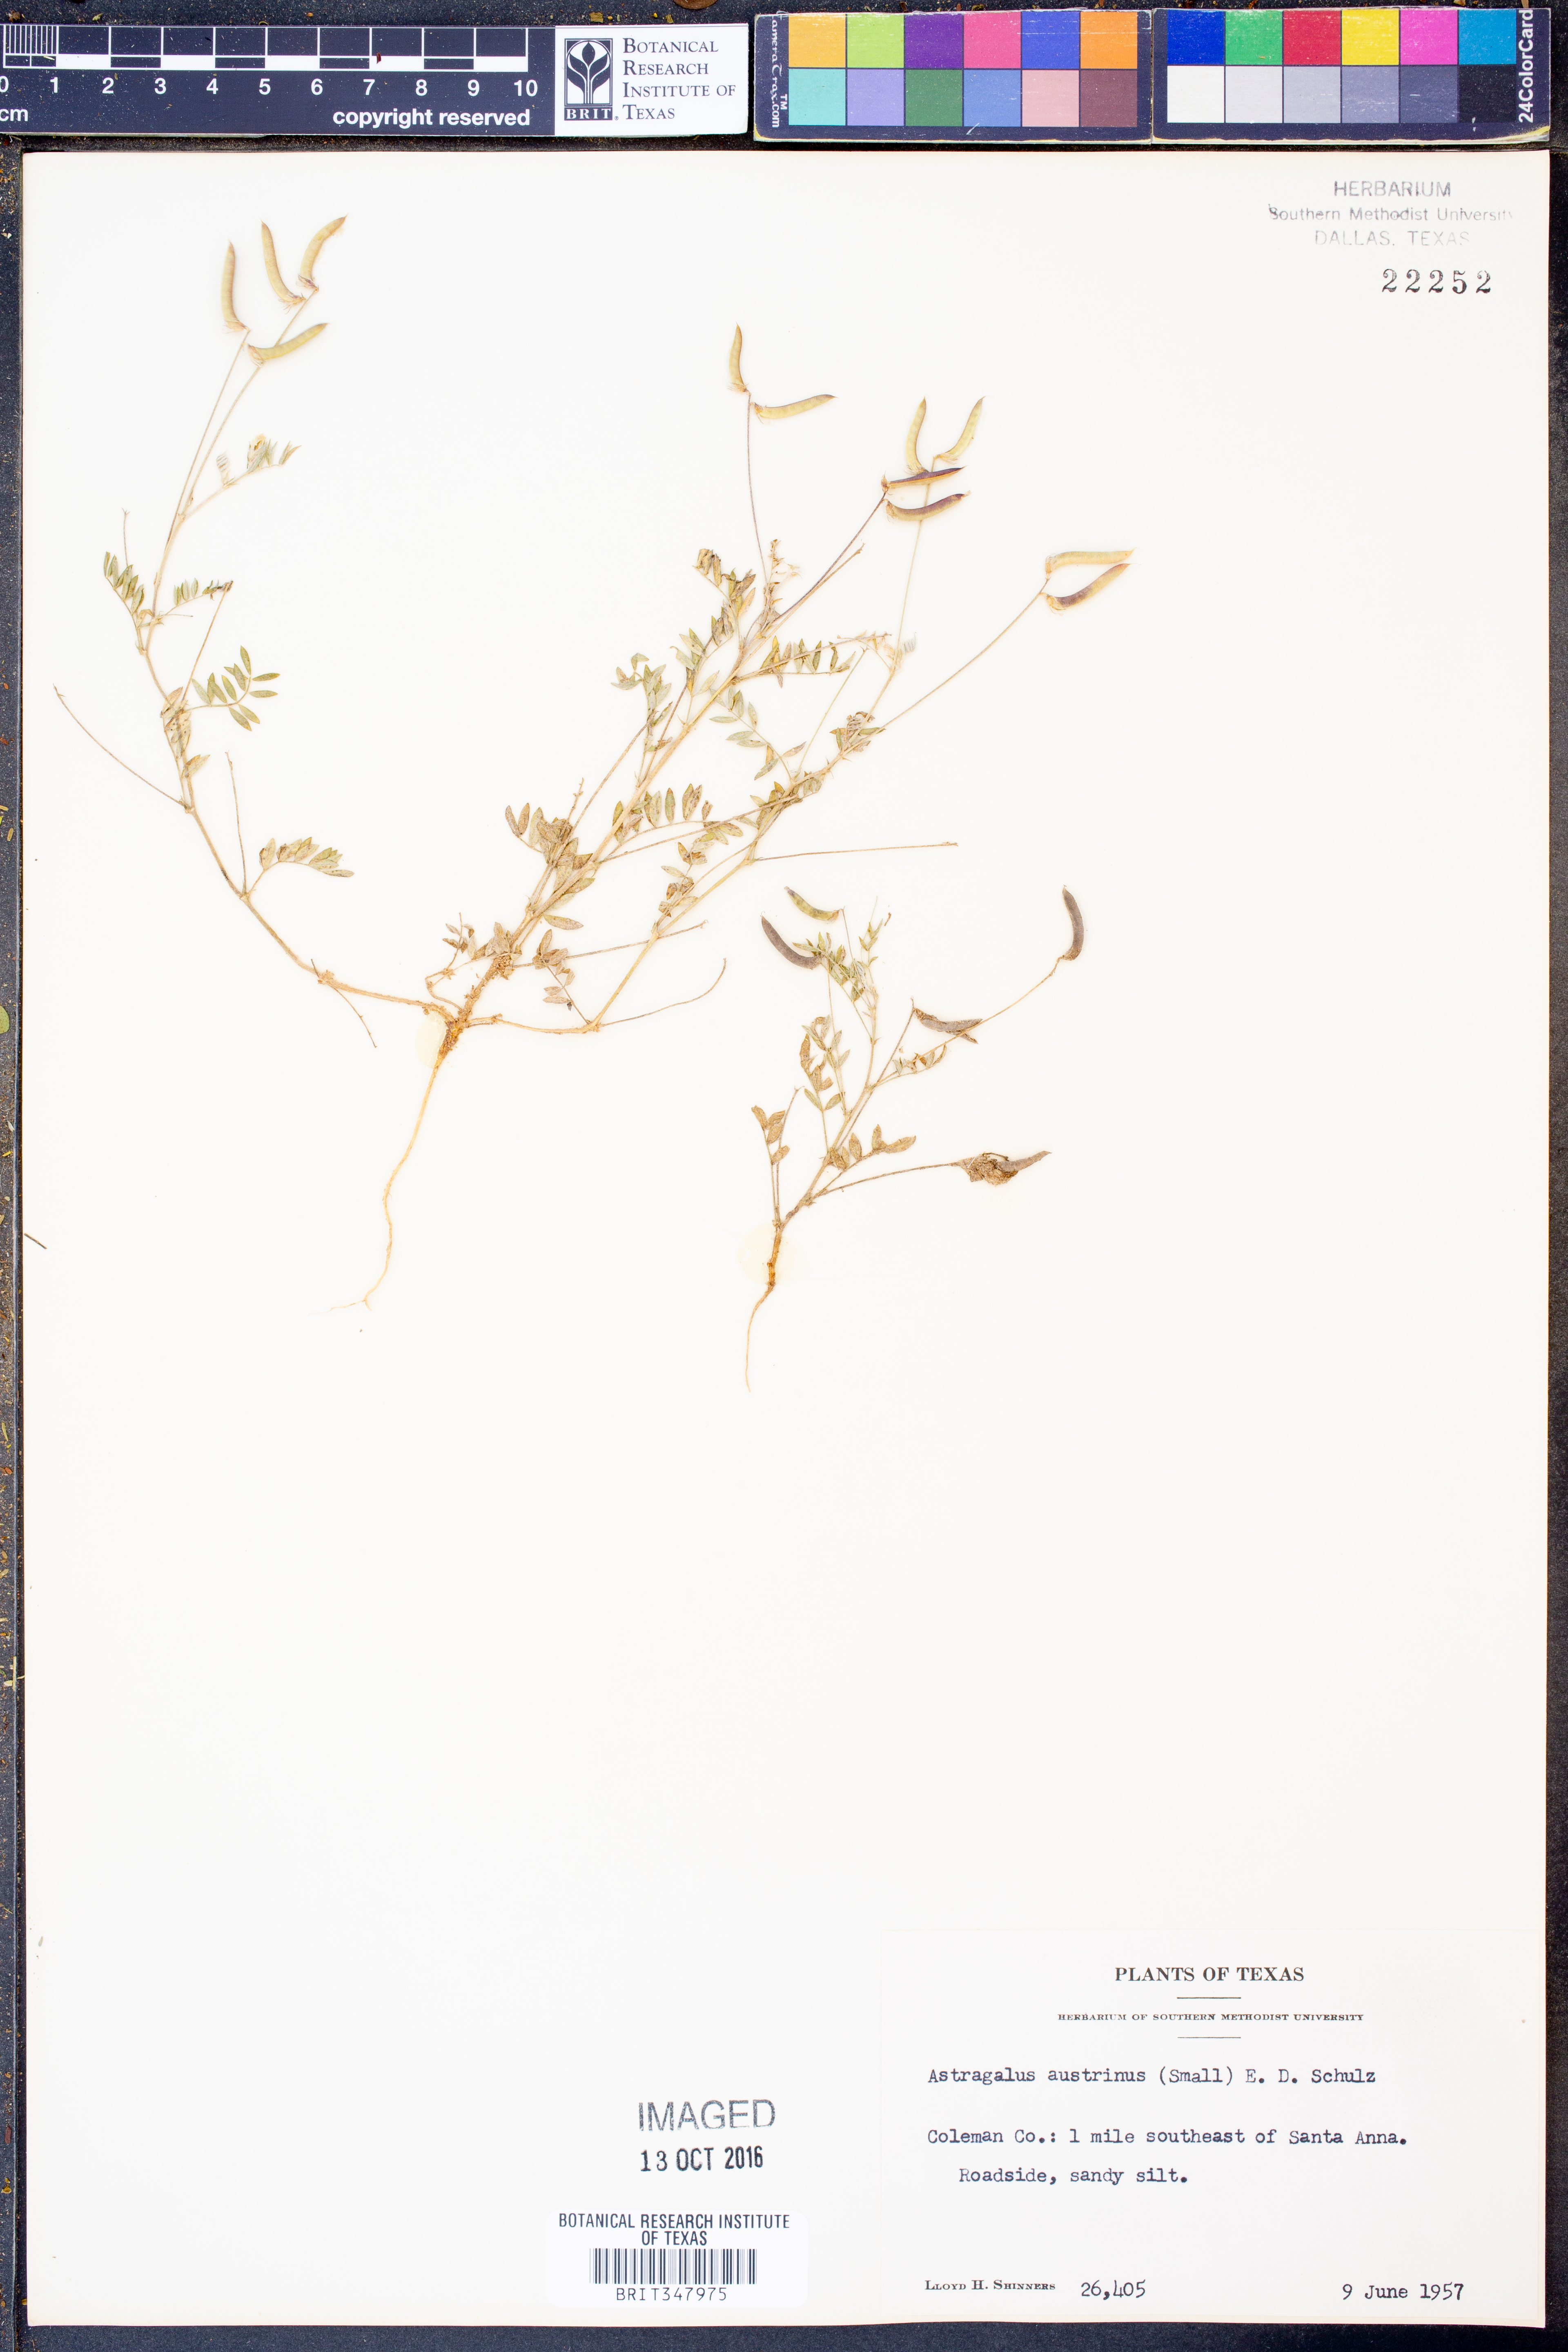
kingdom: Plantae
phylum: Tracheophyta
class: Magnoliopsida
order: Fabales
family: Fabaceae
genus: Astragalus
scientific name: Astragalus nuttallianus
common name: Smallflowered milkvetch
